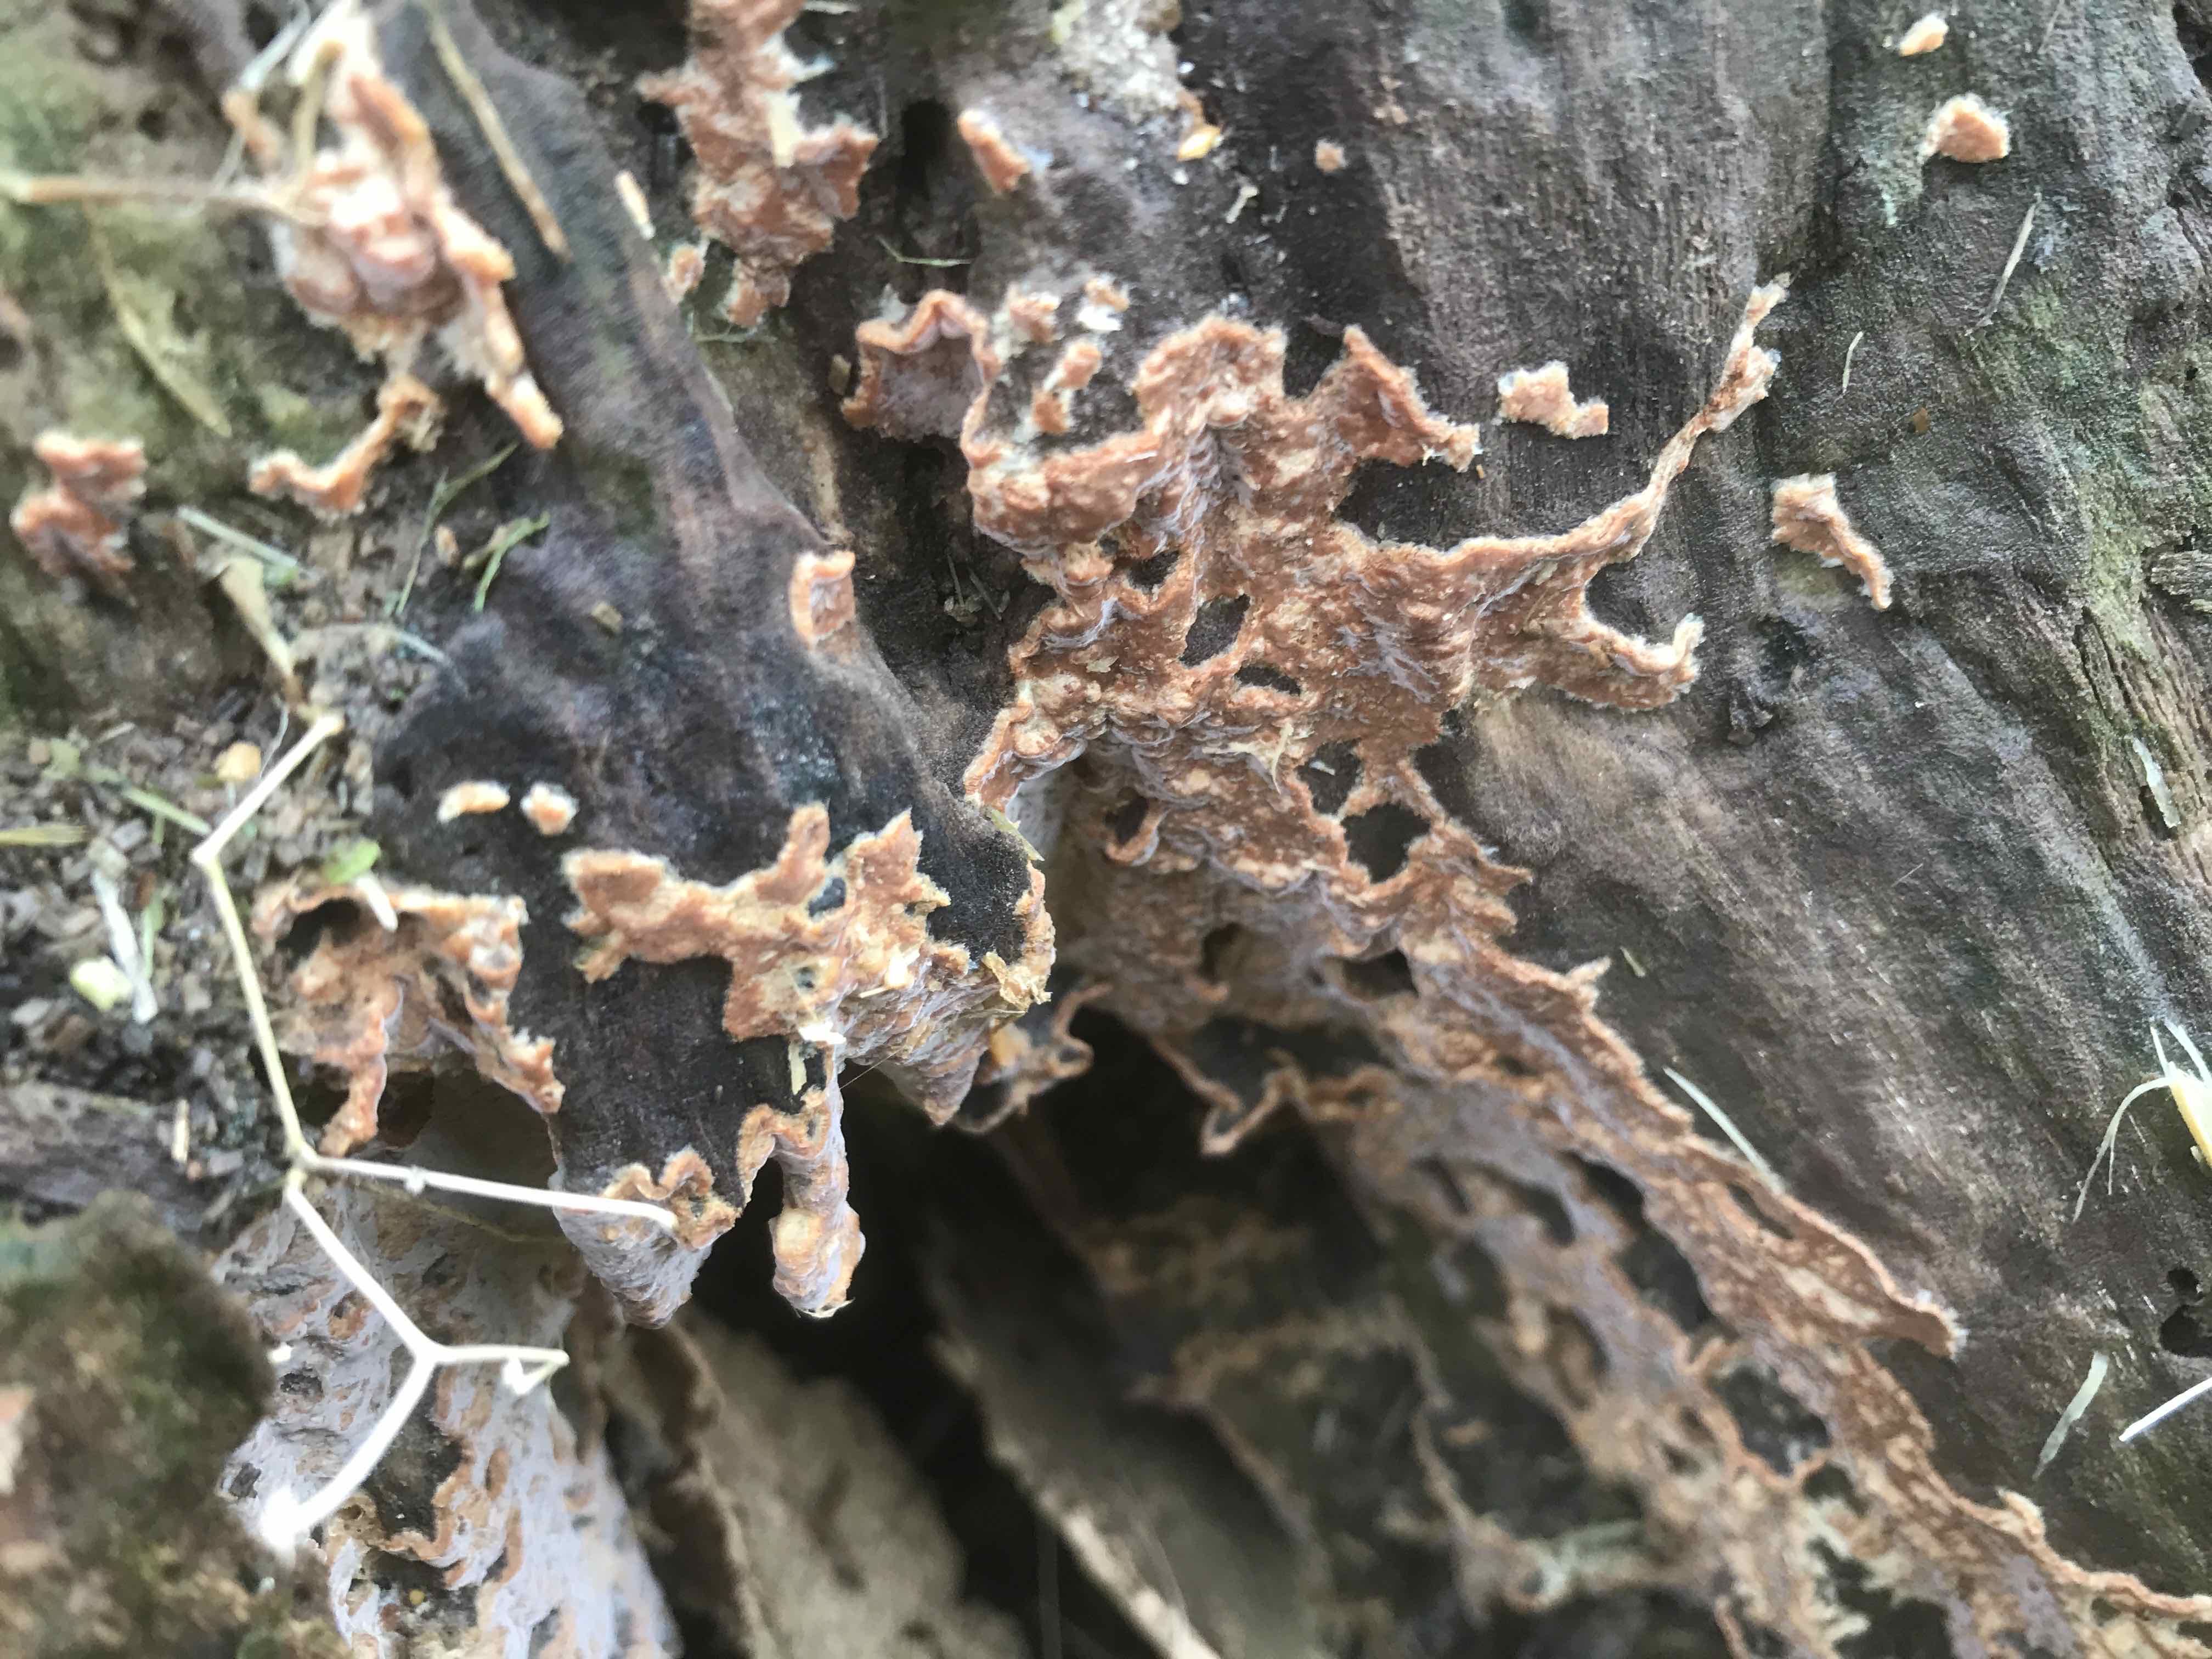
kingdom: Fungi
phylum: Basidiomycota
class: Agaricomycetes
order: Russulales
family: Stereaceae
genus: Stereum
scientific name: Stereum rugosum
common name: rynket lædersvamp
